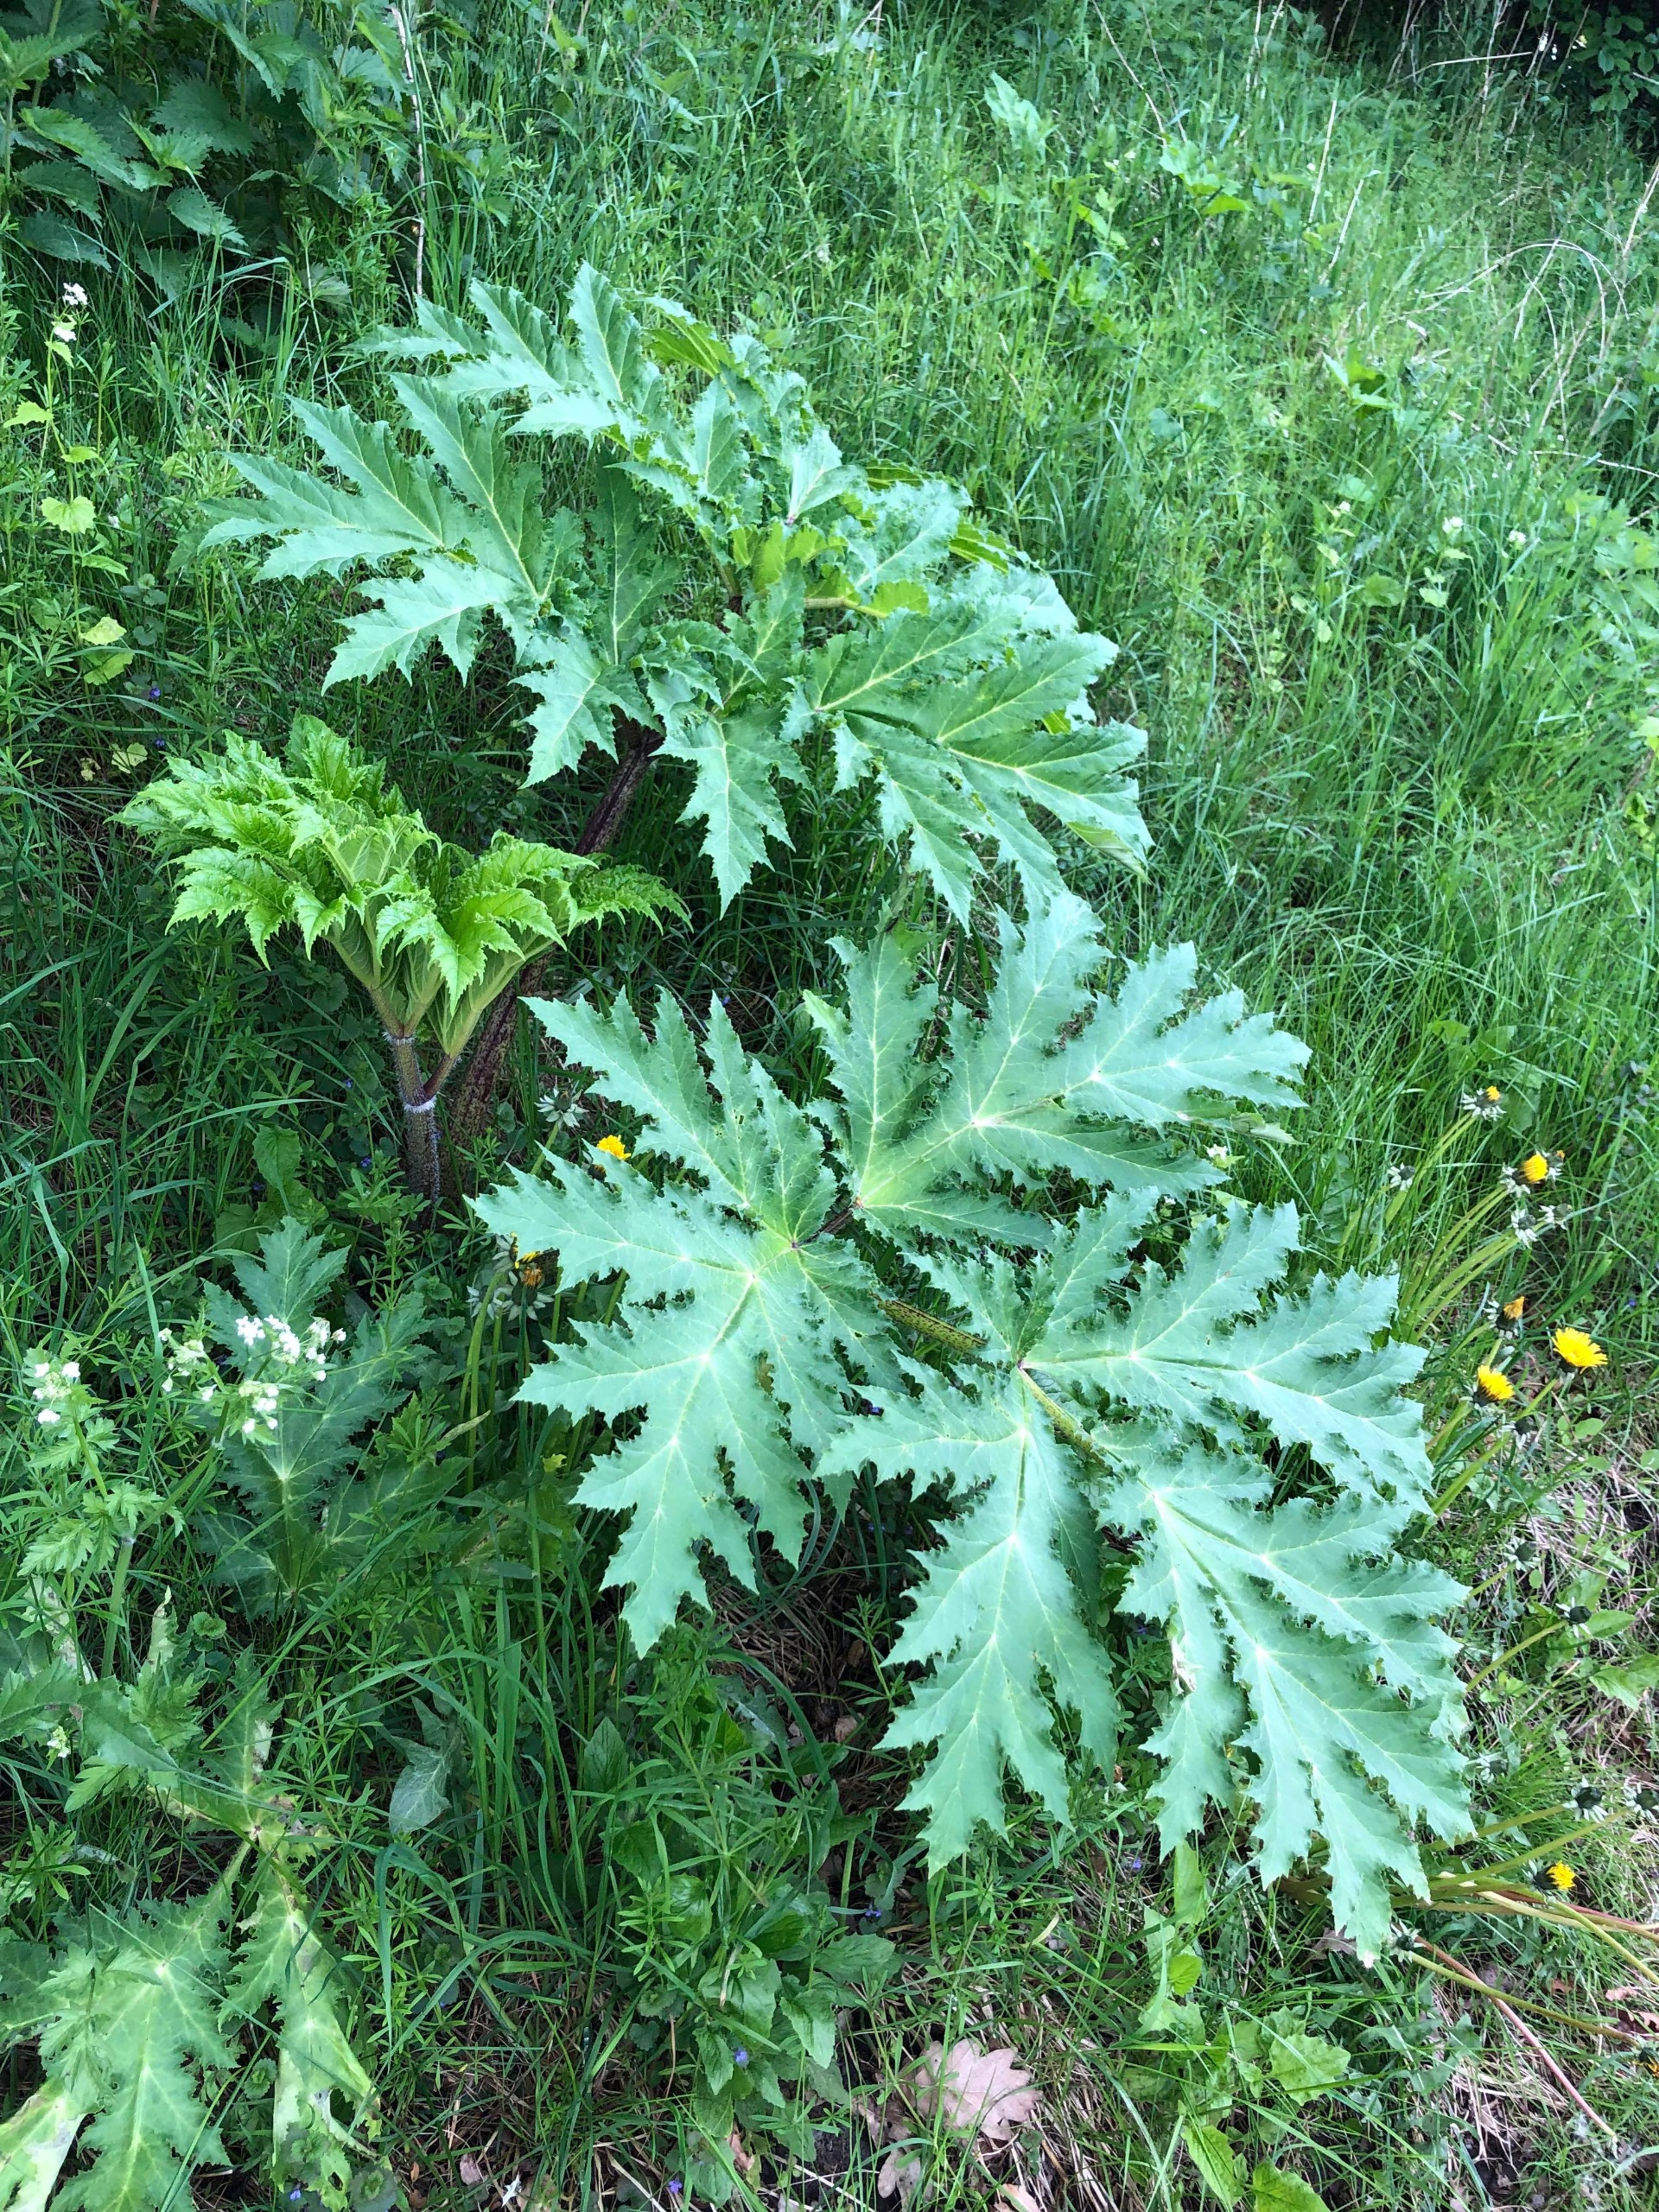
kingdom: Plantae
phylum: Tracheophyta
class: Magnoliopsida
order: Apiales
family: Apiaceae
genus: Heracleum
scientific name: Heracleum mantegazzianum
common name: Kæmpe-bjørneklo
